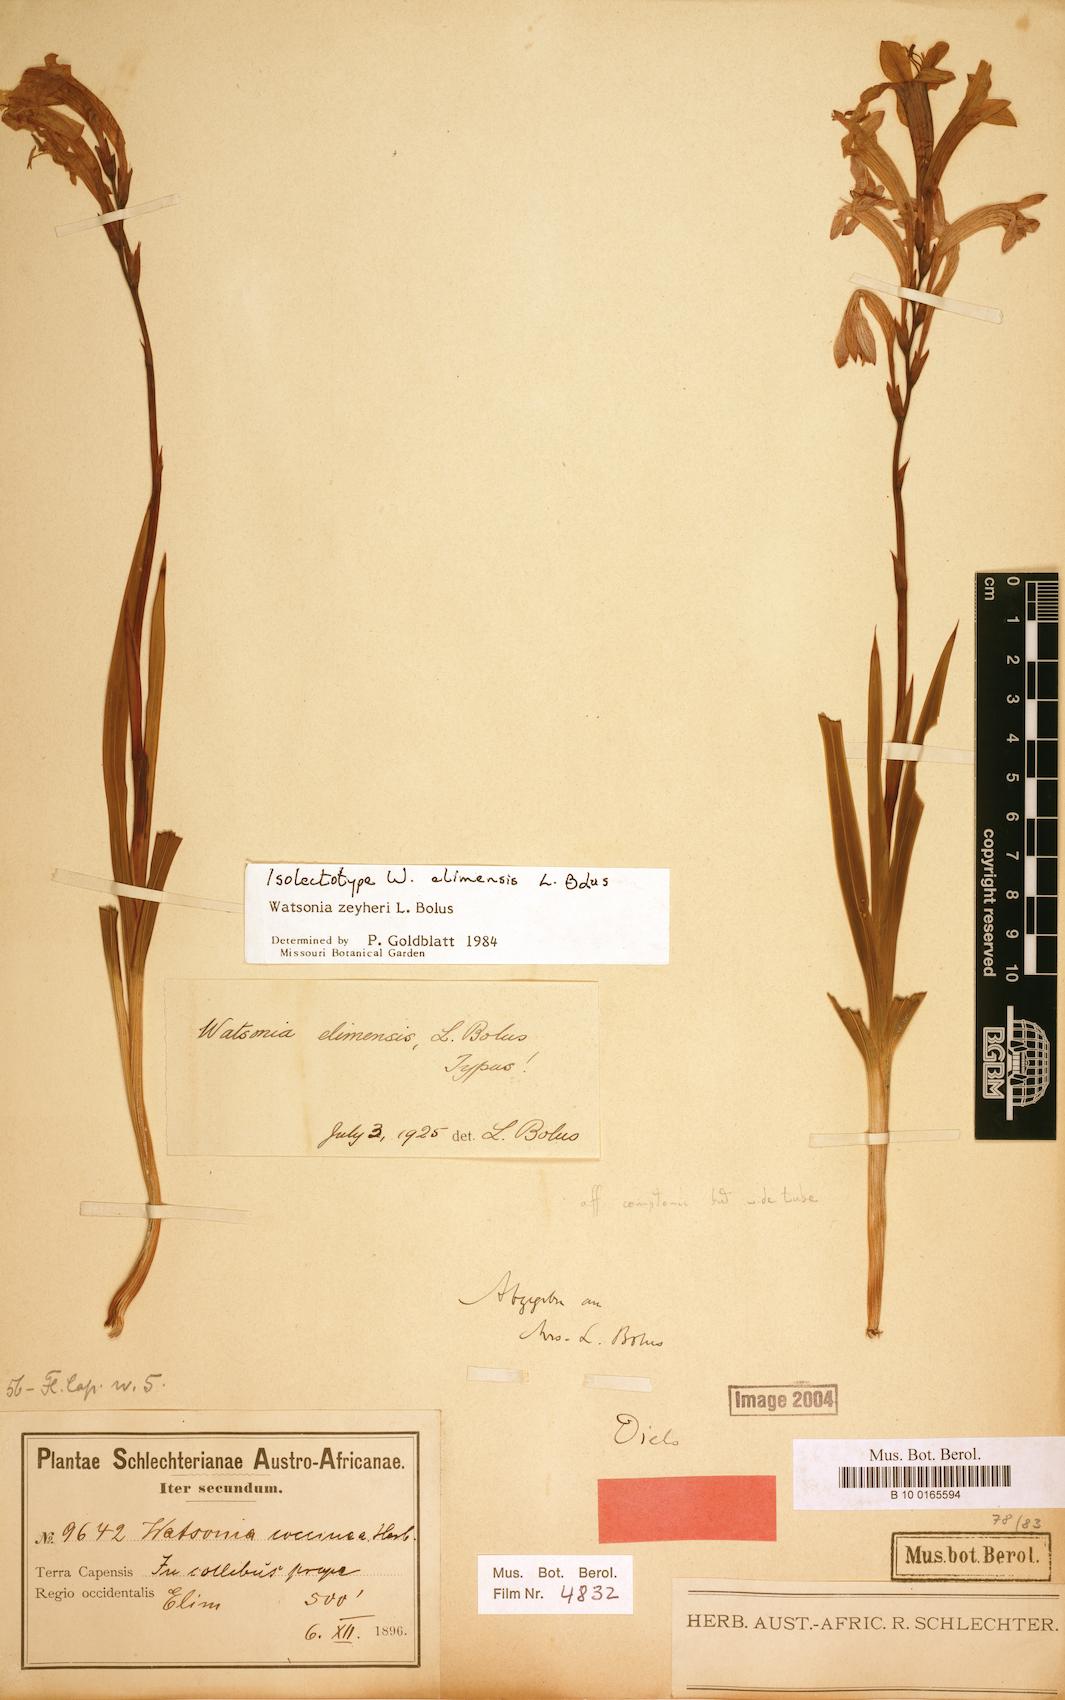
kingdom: Plantae
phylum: Tracheophyta
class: Liliopsida
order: Asparagales
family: Iridaceae
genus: Watsonia
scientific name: Watsonia zeyheri
